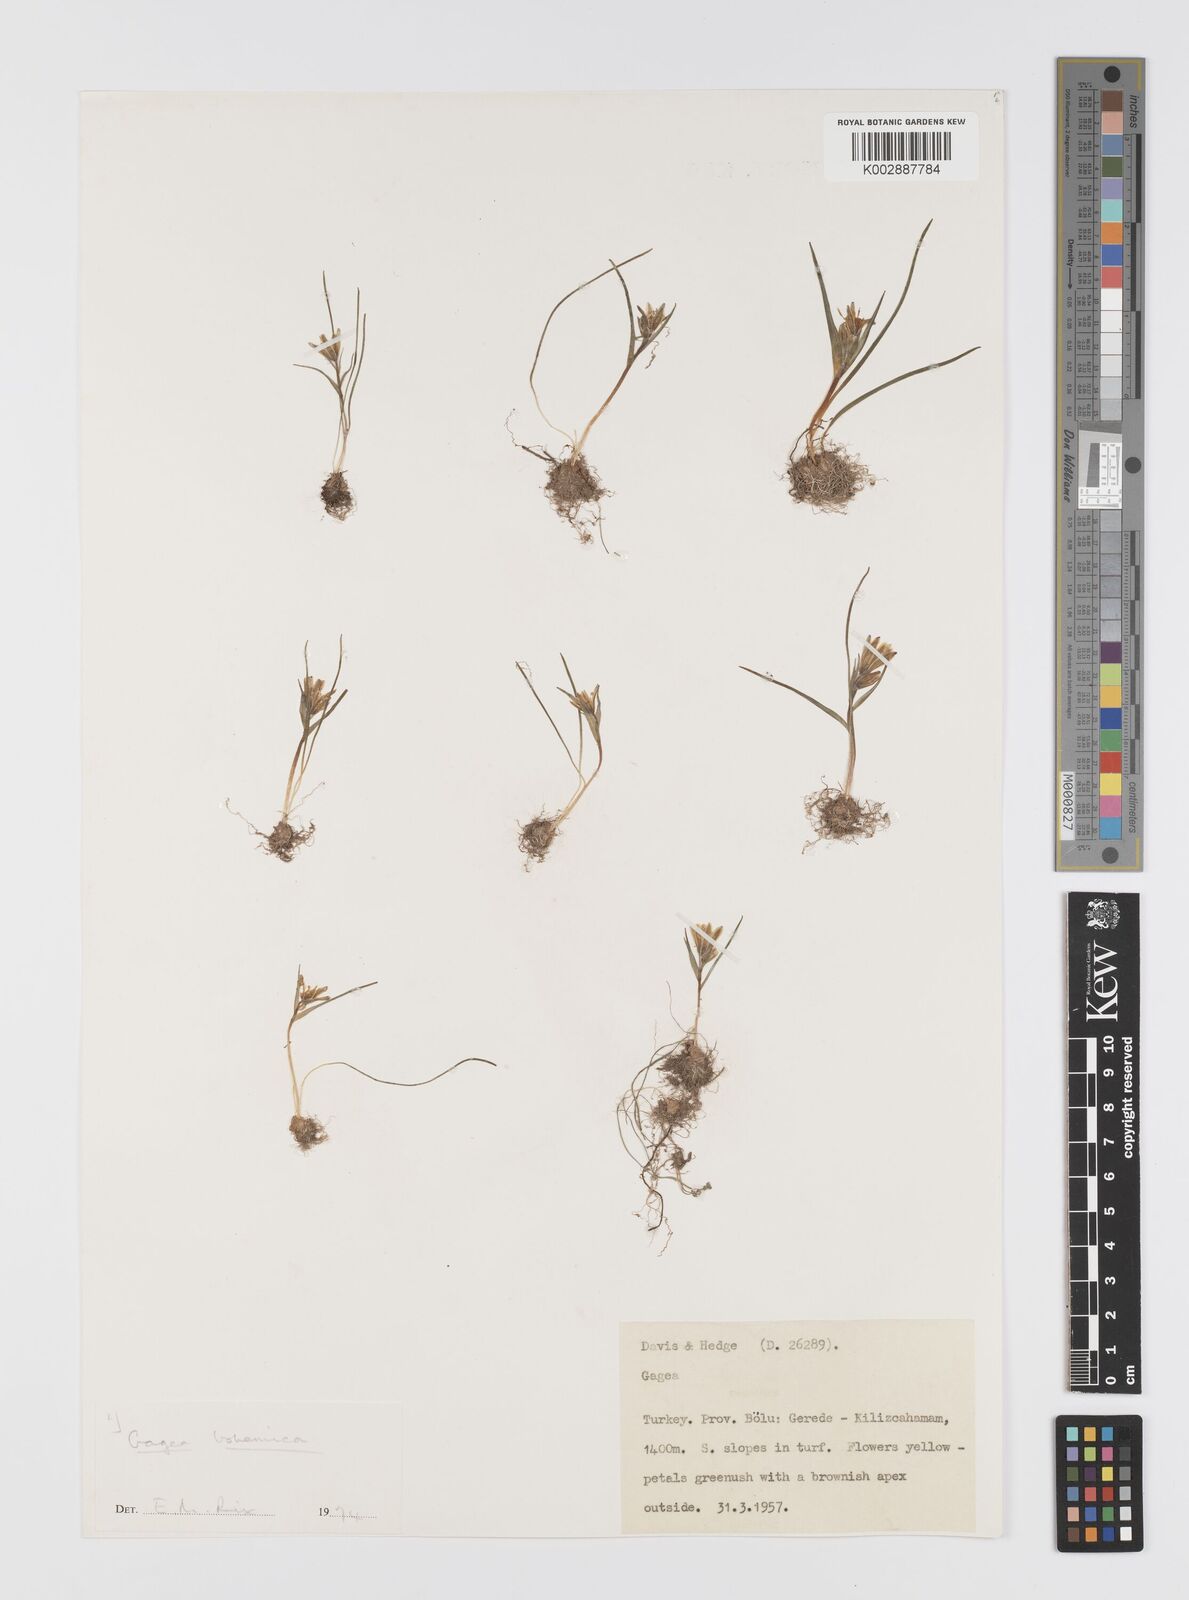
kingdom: Plantae
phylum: Tracheophyta
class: Liliopsida
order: Liliales
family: Liliaceae
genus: Gagea
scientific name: Gagea bohemica
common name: Early star-of-bethlehem
